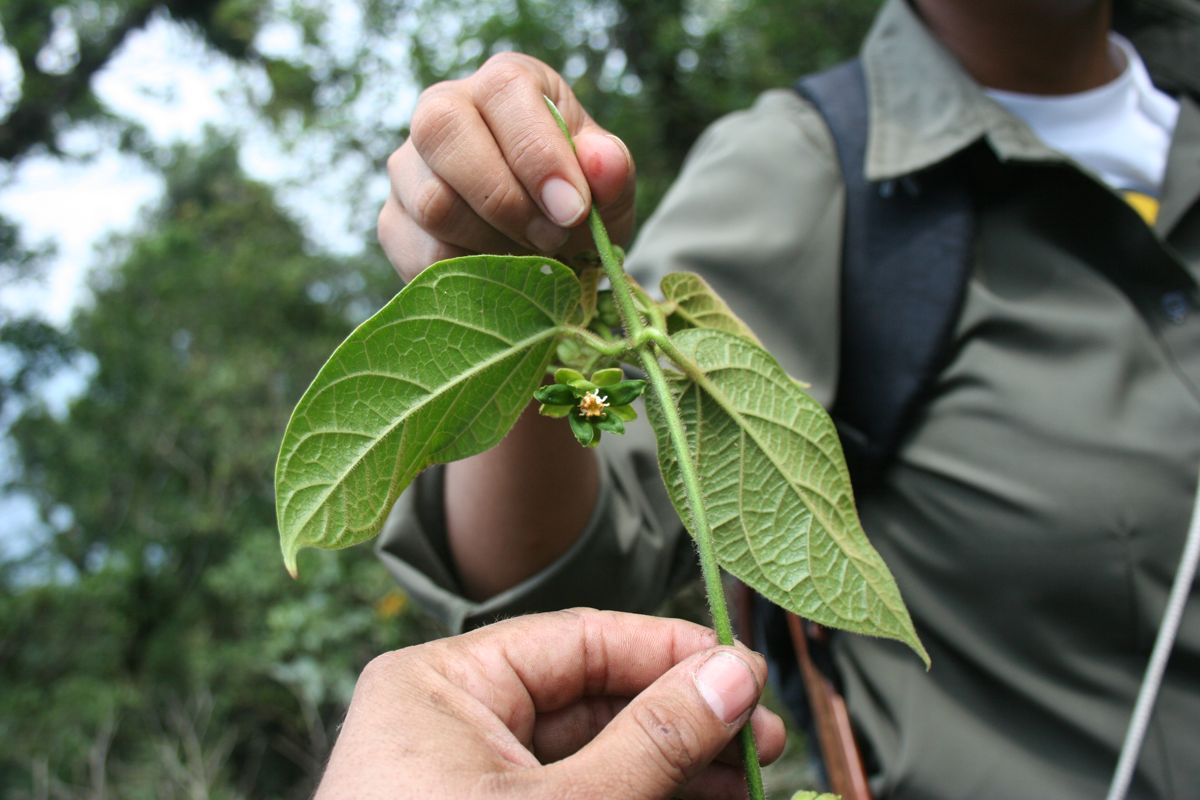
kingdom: Plantae
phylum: Tracheophyta
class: Magnoliopsida
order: Gentianales
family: Apocynaceae
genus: Gonolobus
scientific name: Gonolobus calycosus
